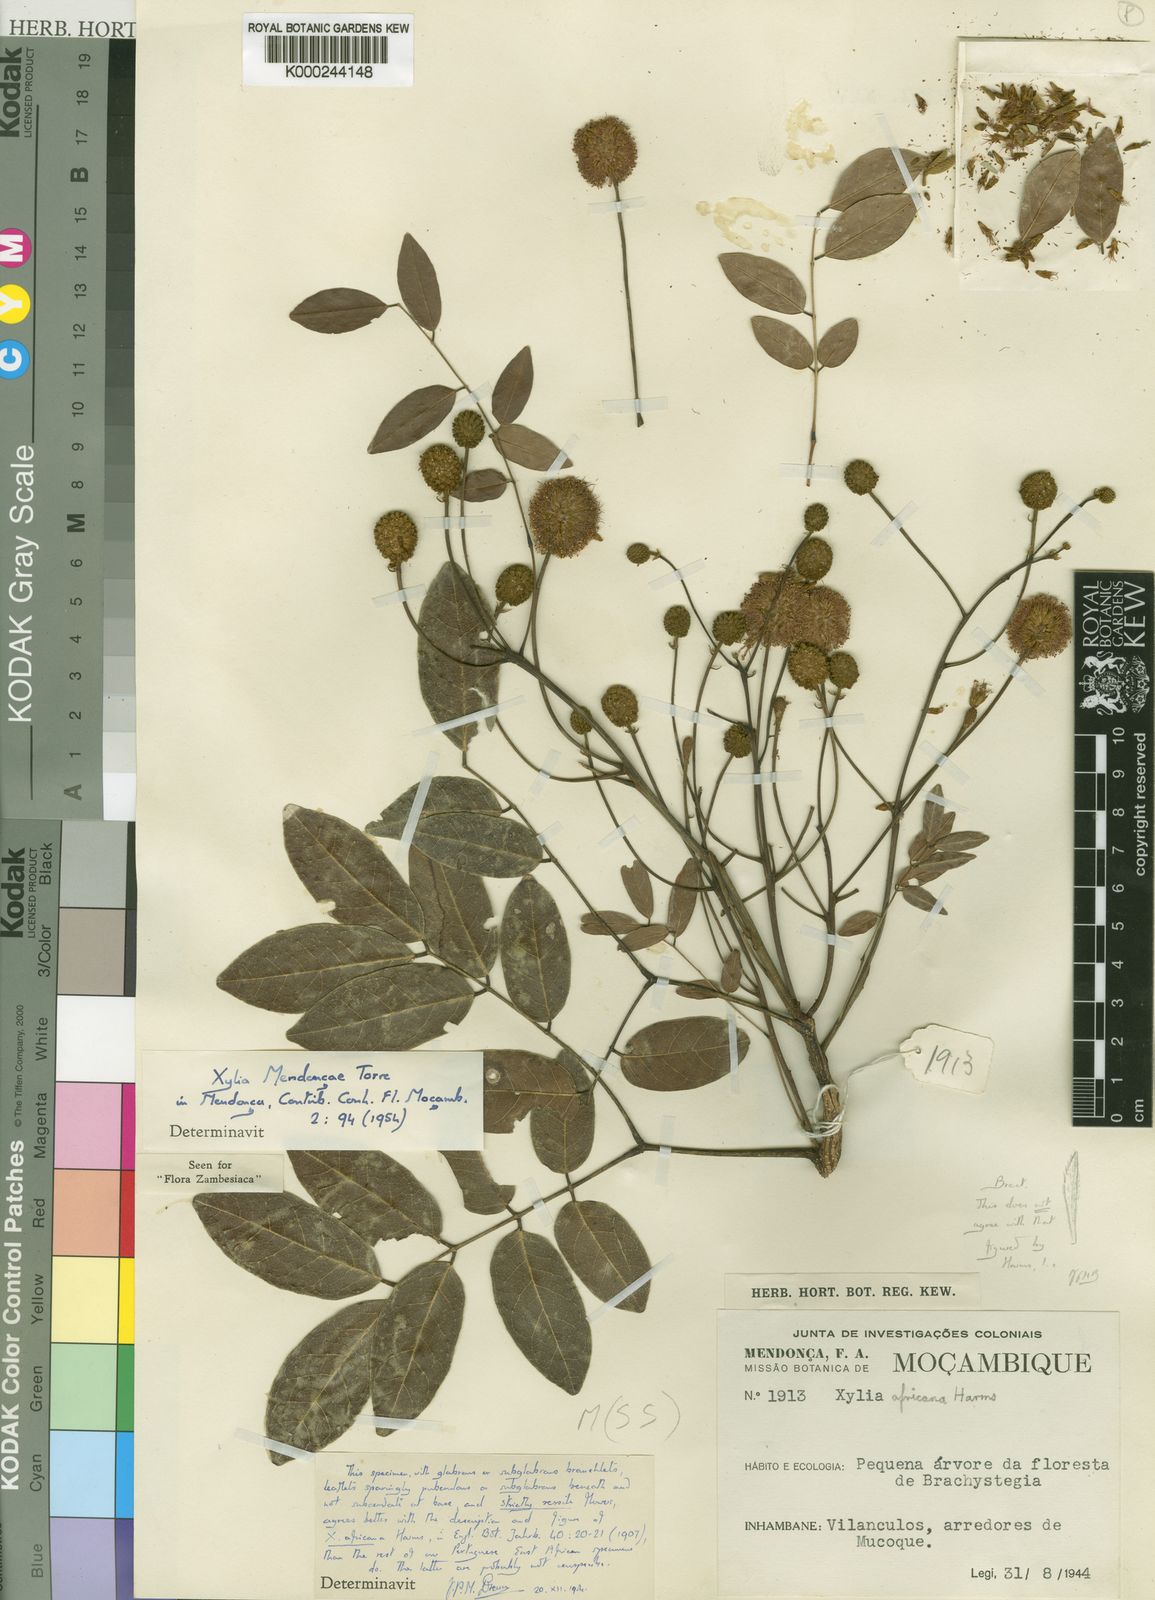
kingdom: Plantae
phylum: Tracheophyta
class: Magnoliopsida
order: Fabales
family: Fabaceae
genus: Xylia
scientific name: Xylia mendoncae
